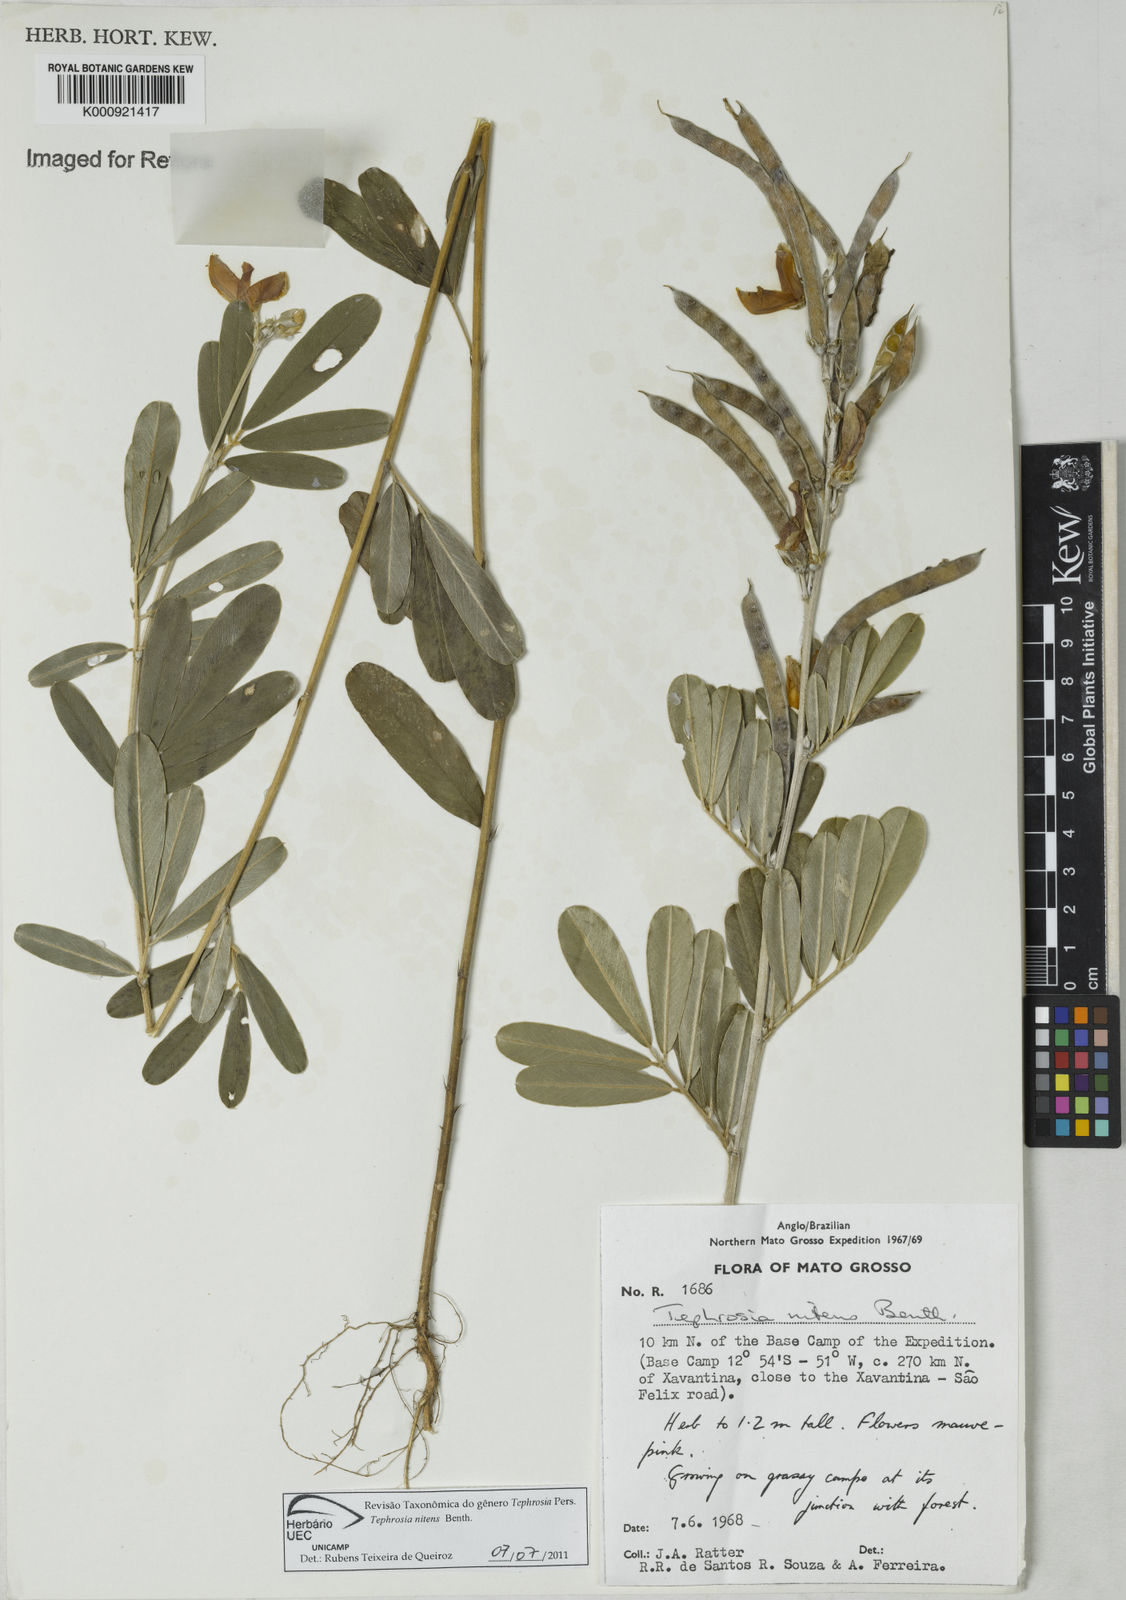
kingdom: Plantae
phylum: Tracheophyta
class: Magnoliopsida
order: Fabales
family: Fabaceae
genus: Tephrosia
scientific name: Tephrosia nitens
